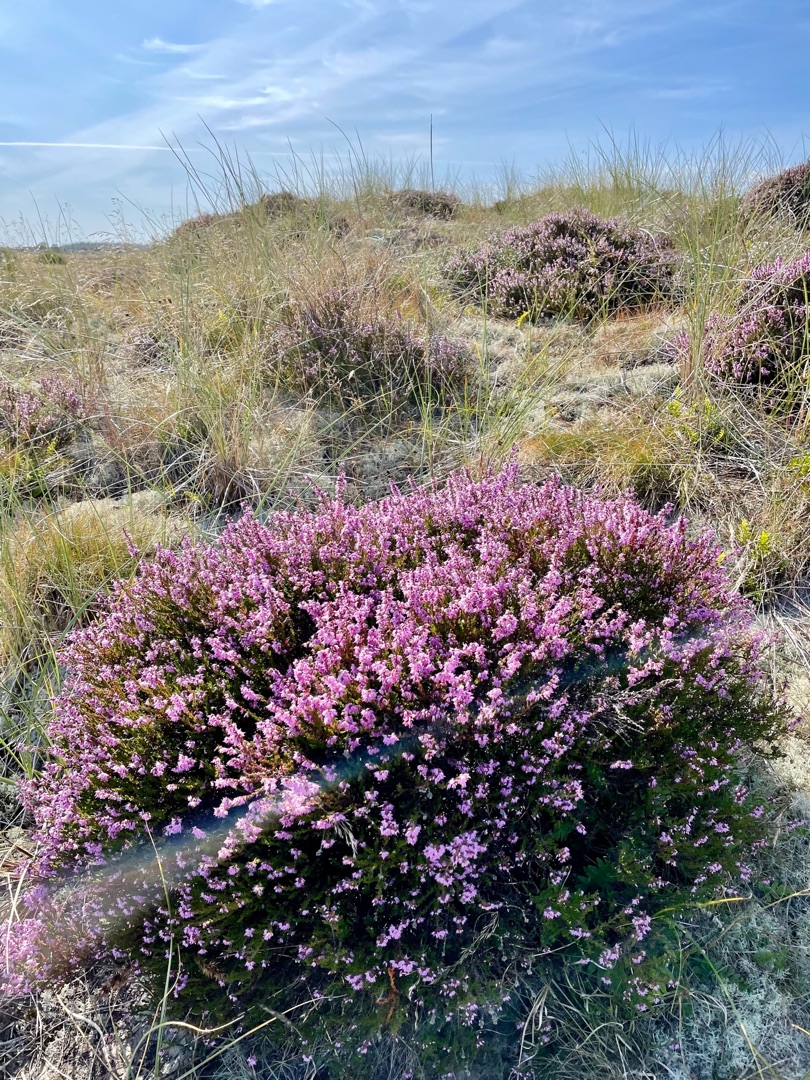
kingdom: Plantae
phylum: Tracheophyta
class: Magnoliopsida
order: Ericales
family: Ericaceae
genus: Calluna
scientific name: Calluna vulgaris
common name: Hedelyng
